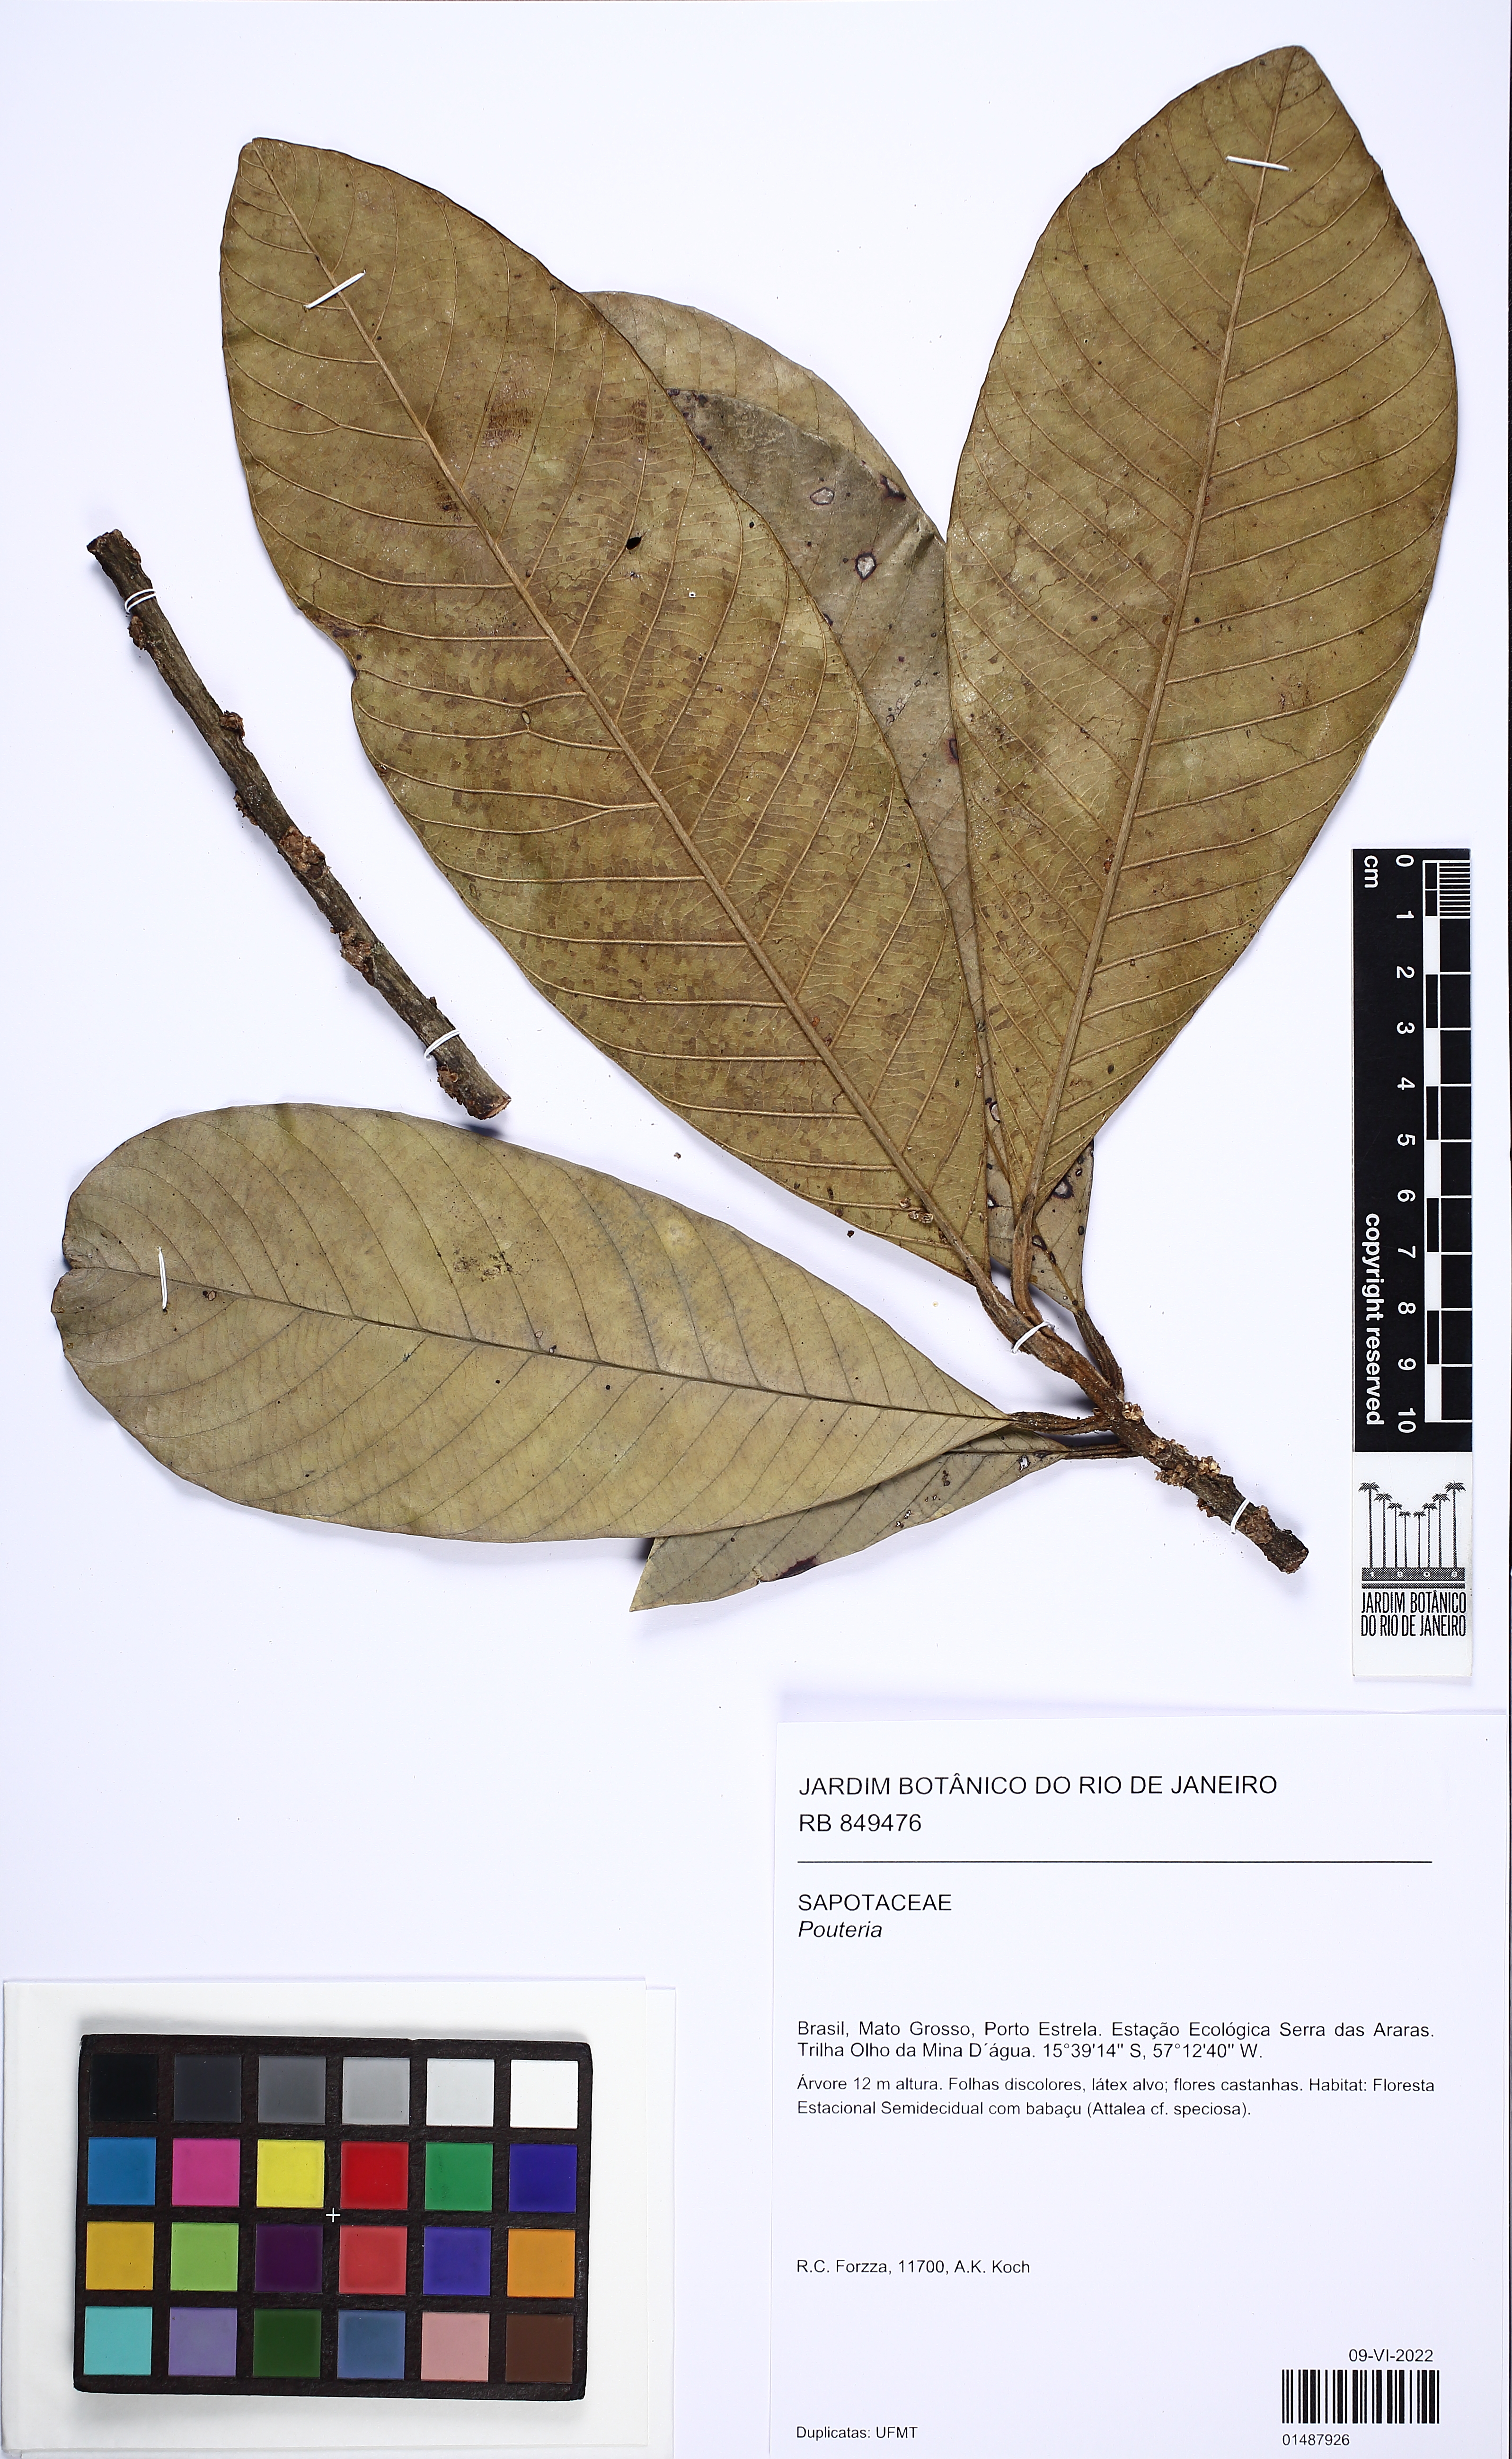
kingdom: Plantae
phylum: Tracheophyta
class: Magnoliopsida
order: Ericales
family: Sapotaceae
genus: Ecclinusa
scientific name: Ecclinusa ramiflora
